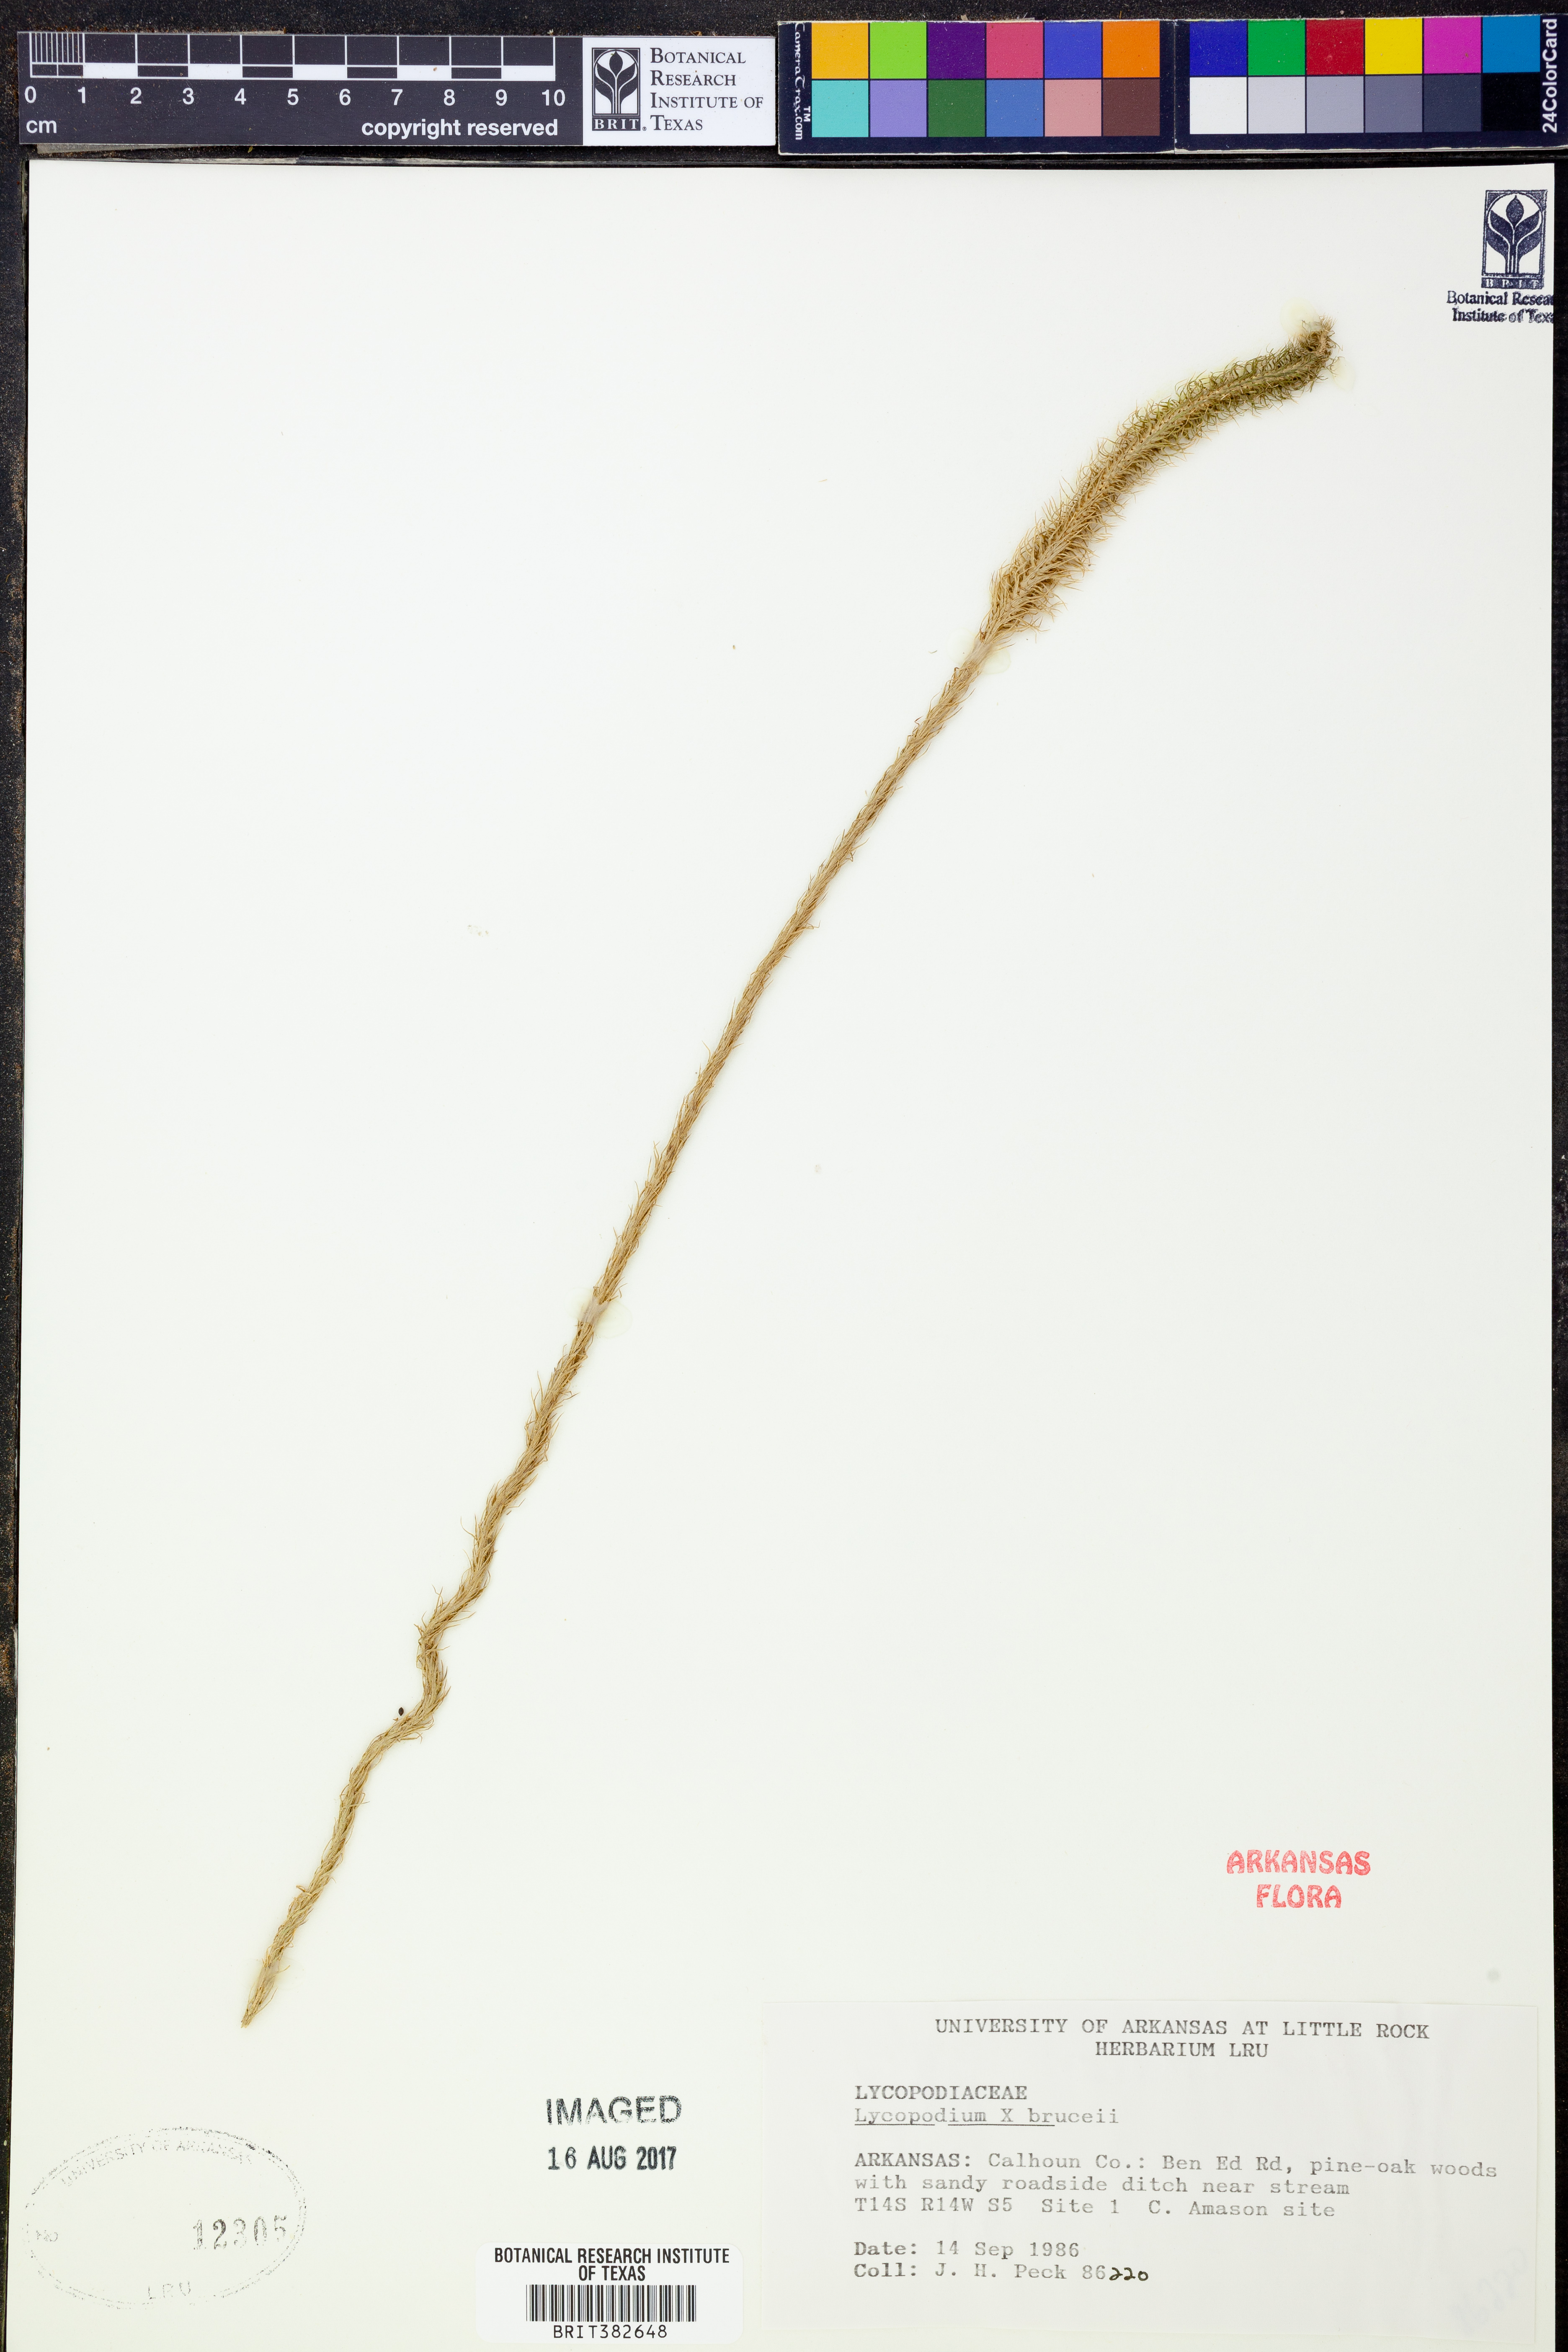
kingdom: Plantae
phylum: Tracheophyta
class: Lycopodiopsida
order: Lycopodiales
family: Lycopodiaceae
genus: Lycopodiella
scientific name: Lycopodiella brucei
